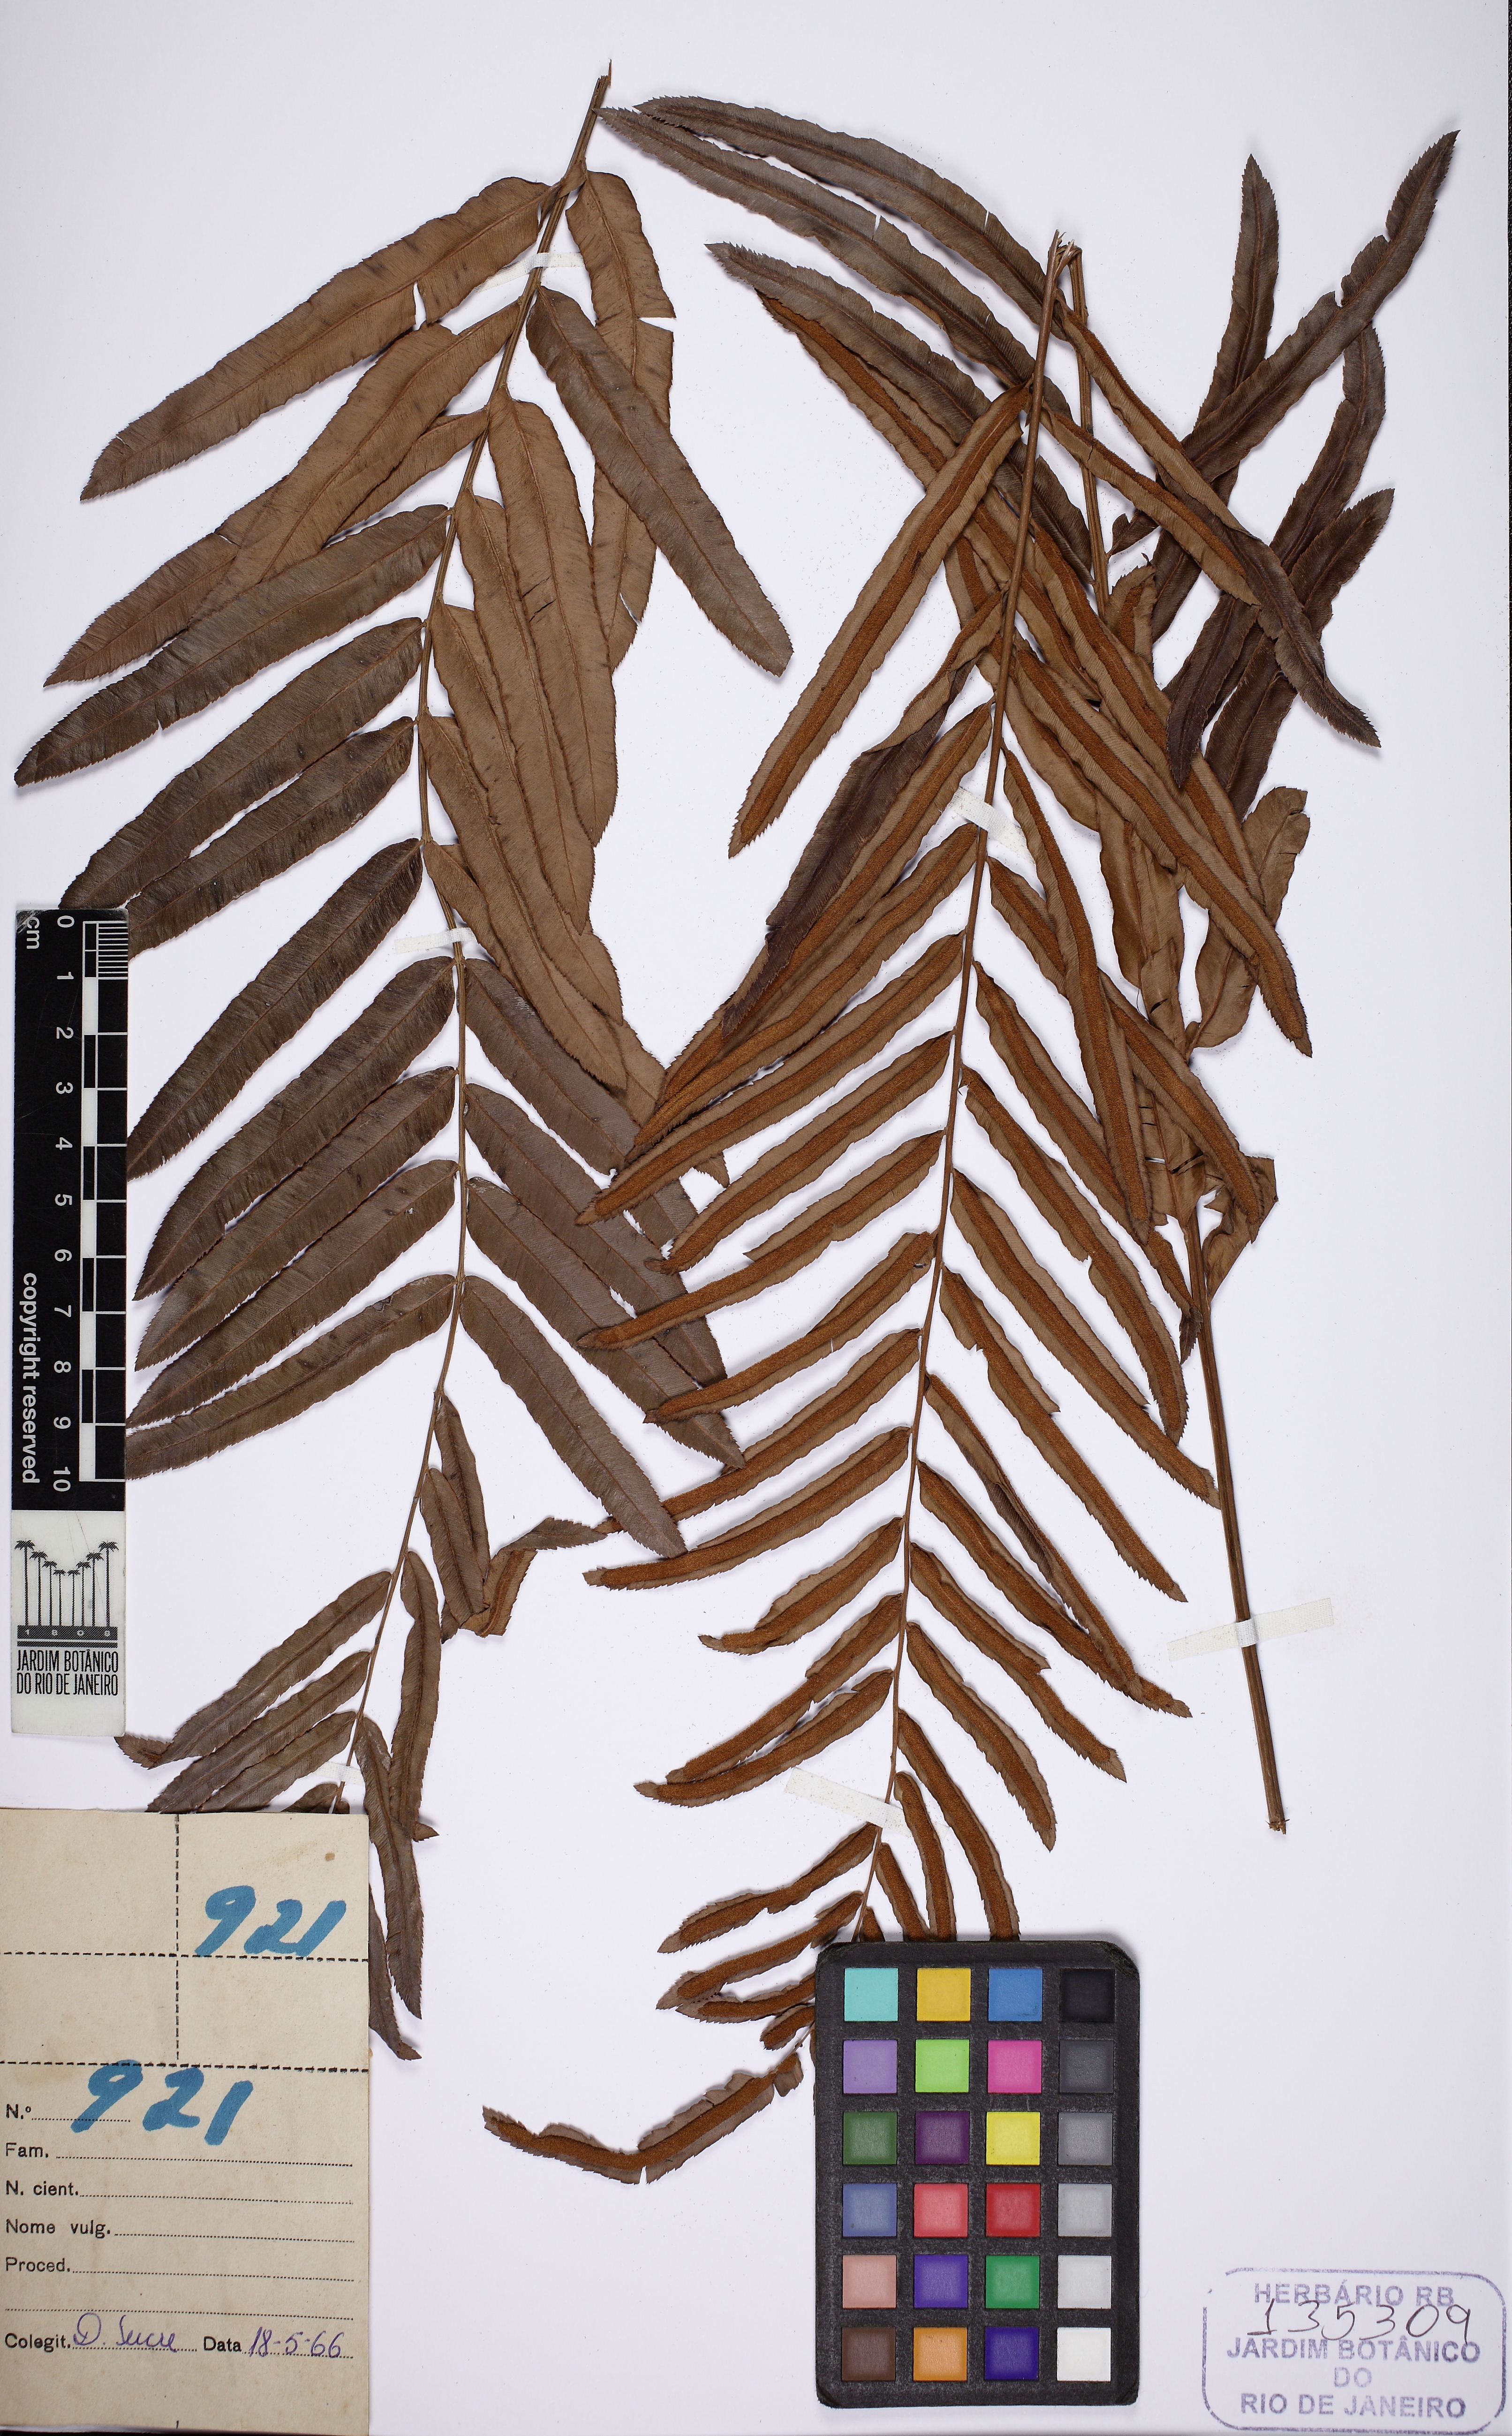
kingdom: Plantae
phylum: Tracheophyta
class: Polypodiopsida
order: Polypodiales
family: Blechnaceae
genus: Telmatoblechnum
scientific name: Telmatoblechnum serrulatum
